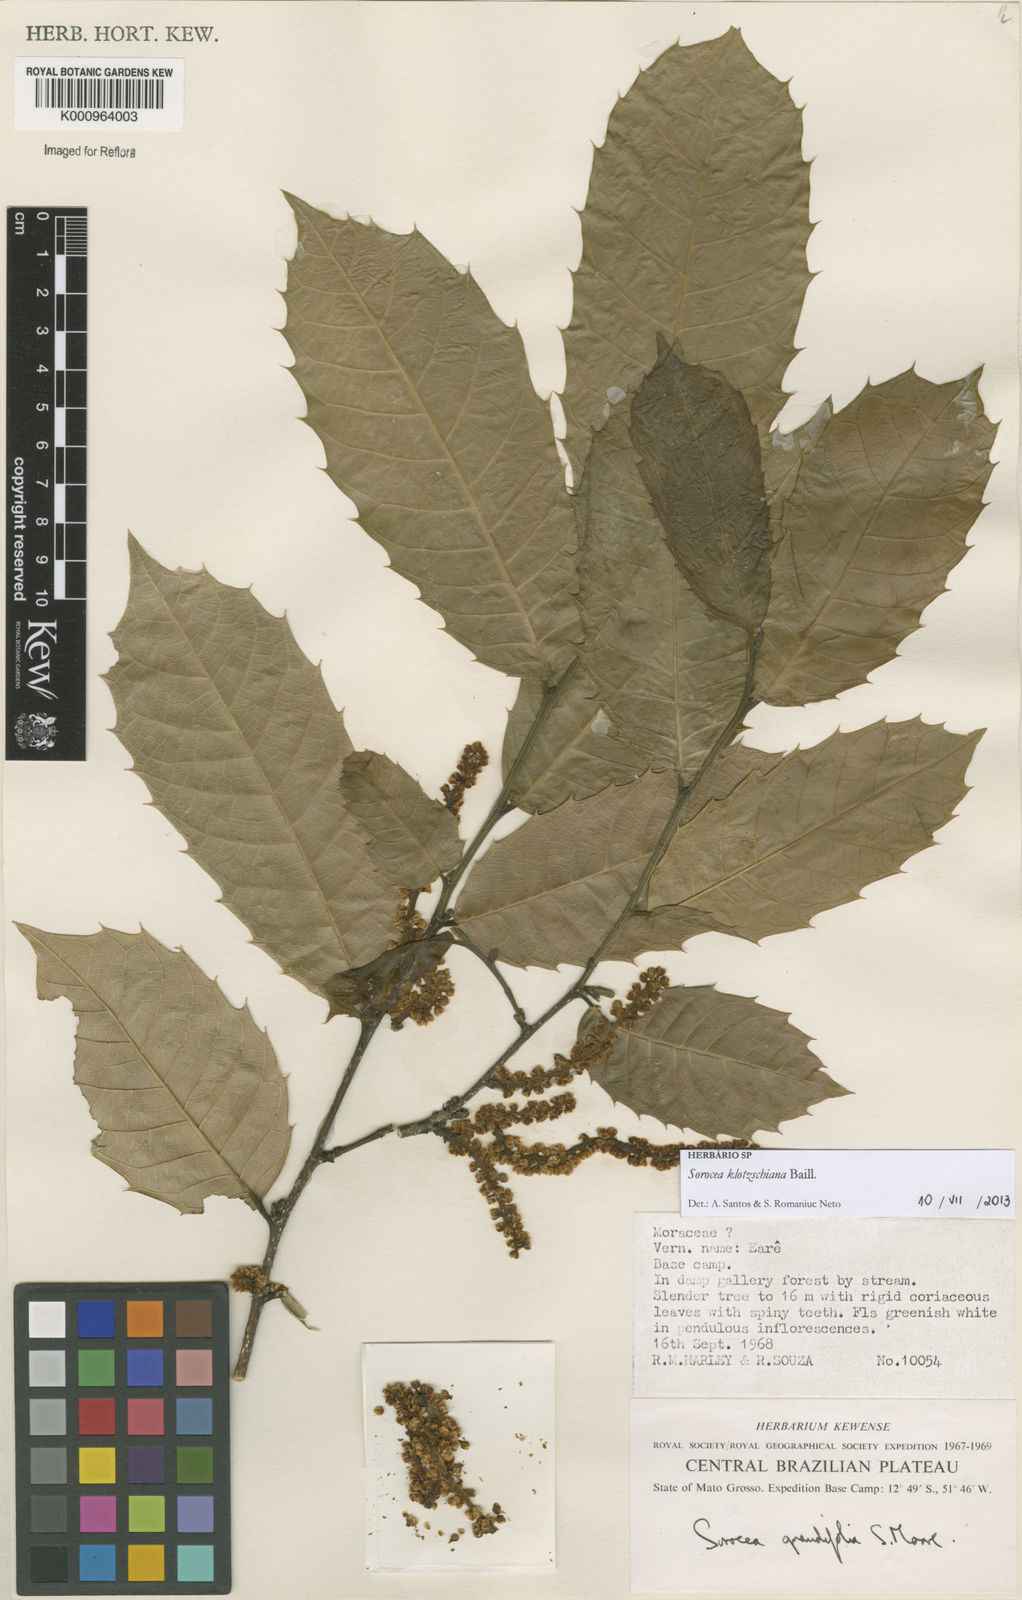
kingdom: Plantae
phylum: Tracheophyta
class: Magnoliopsida
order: Rosales
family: Moraceae
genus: Sorocea
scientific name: Sorocea guilleminiana
